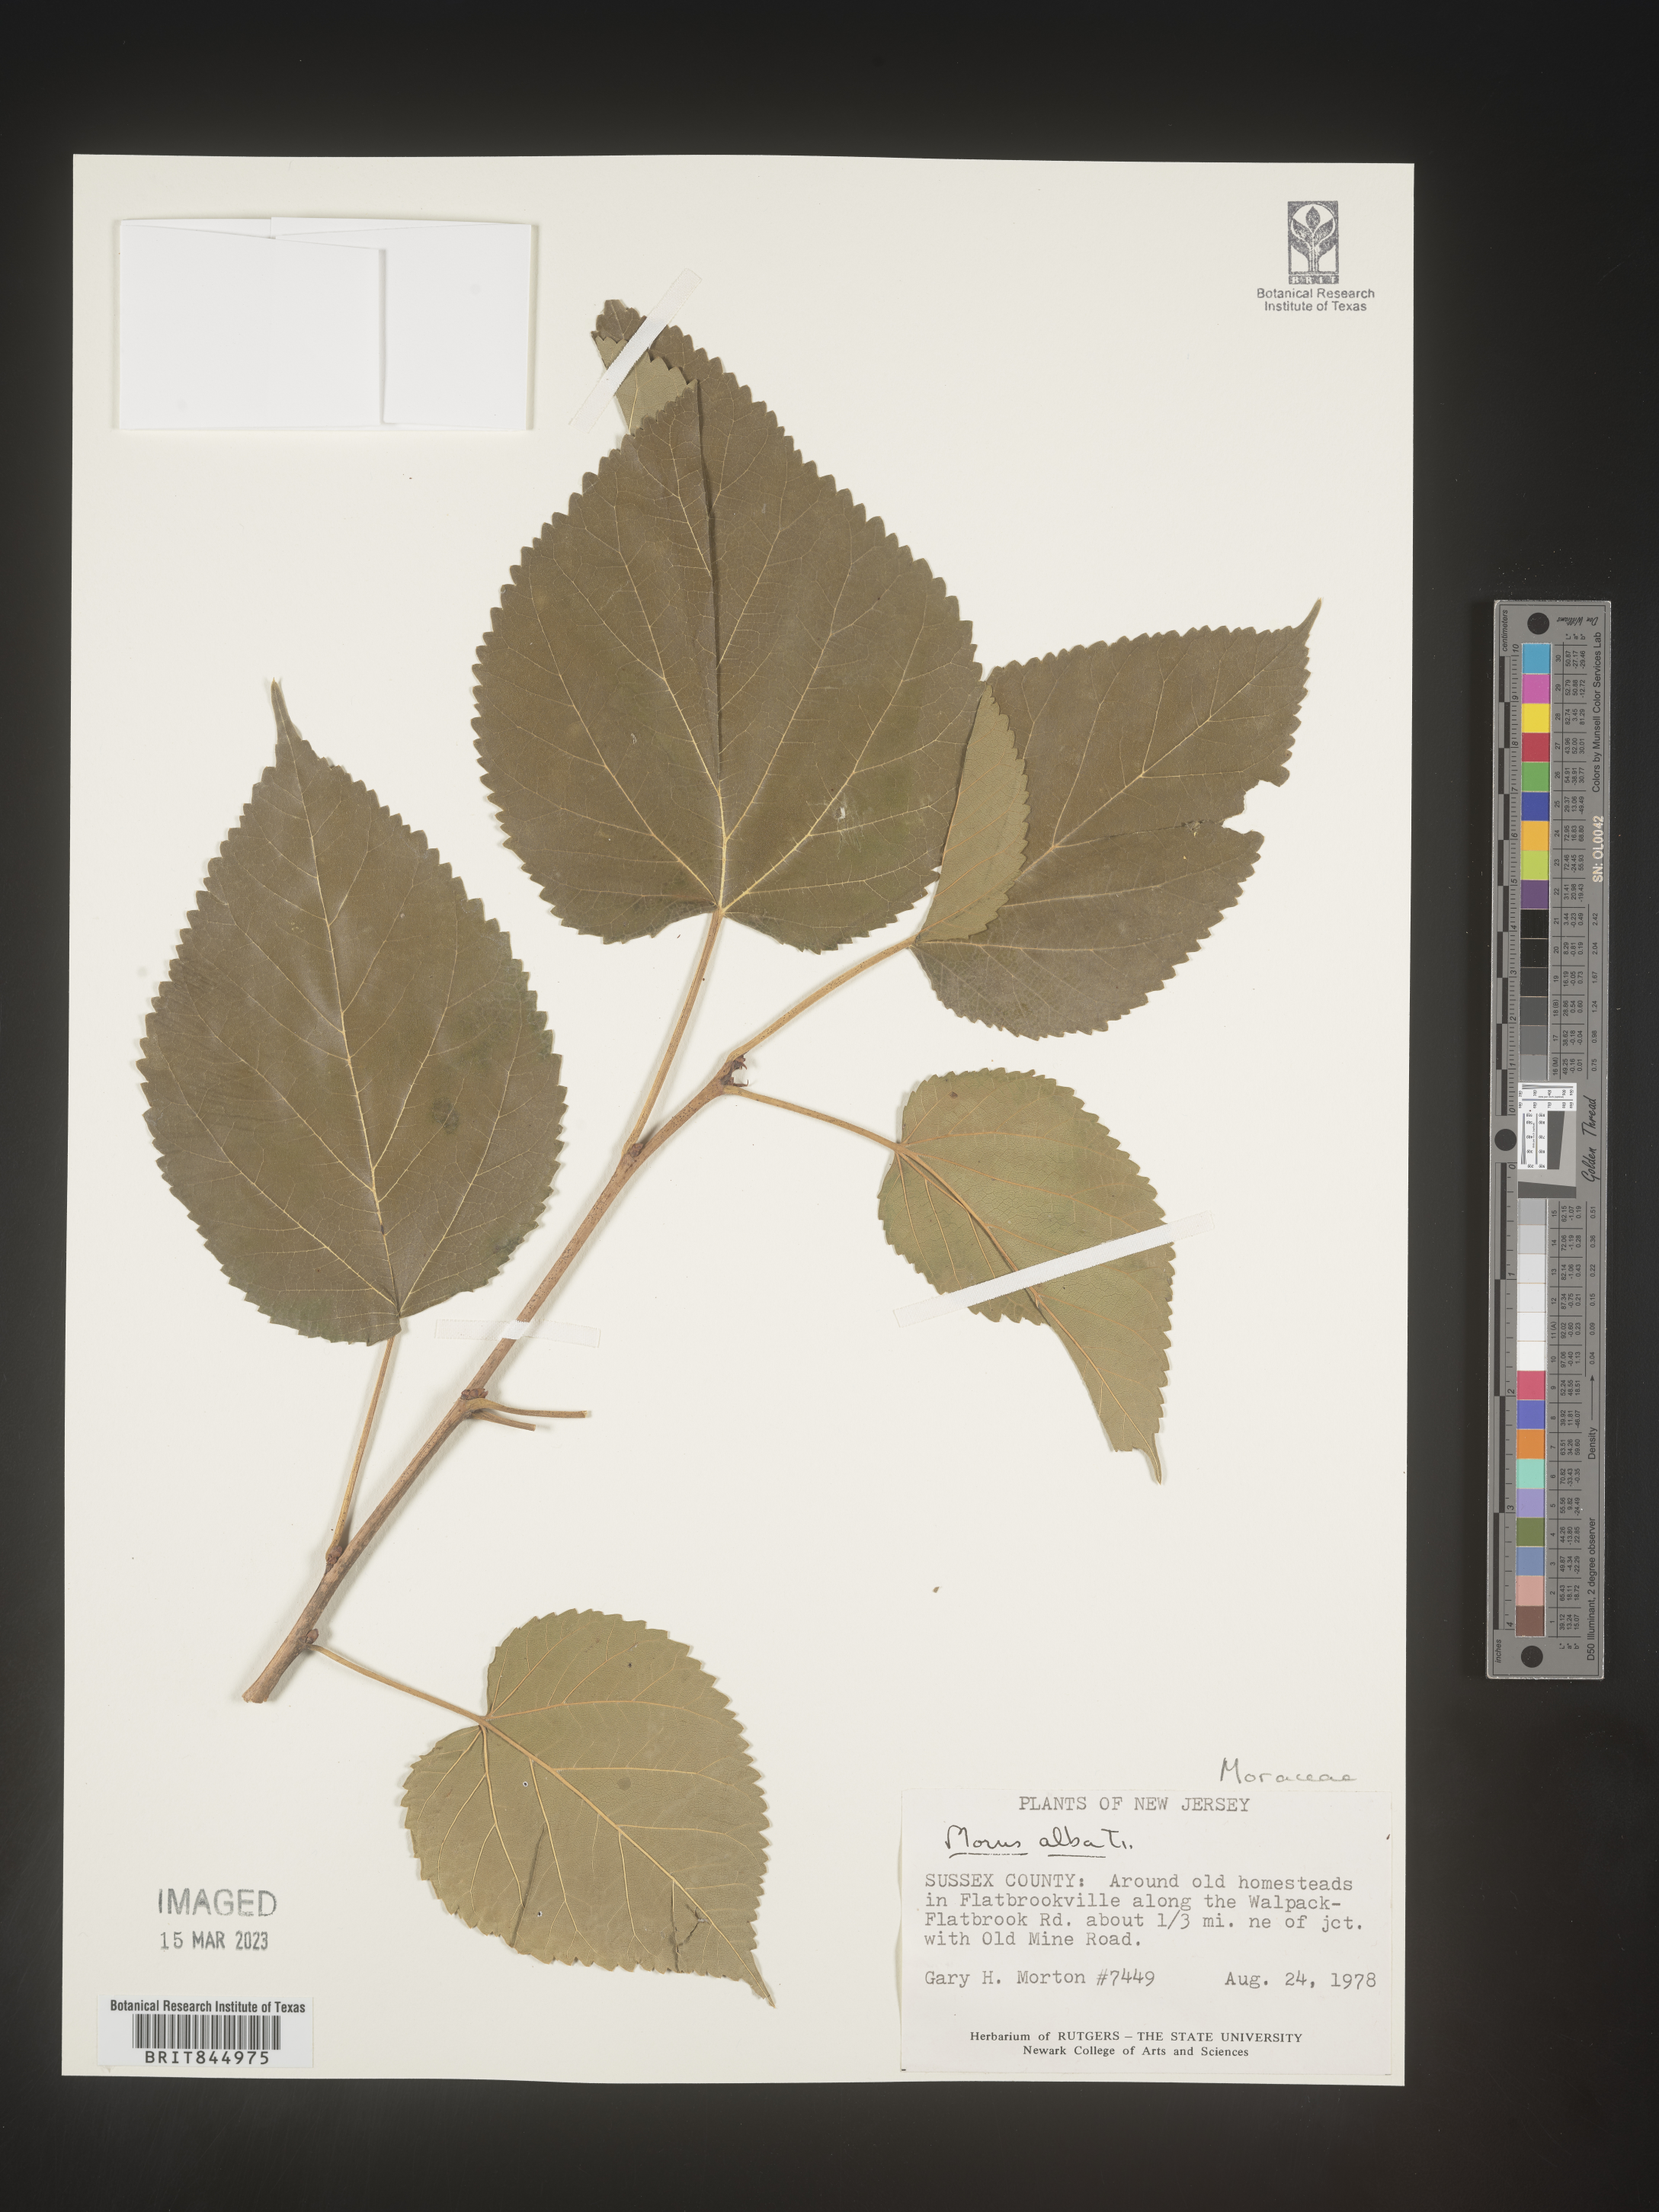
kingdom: Plantae
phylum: Tracheophyta
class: Magnoliopsida
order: Rosales
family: Moraceae
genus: Morus
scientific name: Morus alba
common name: White mulberry
